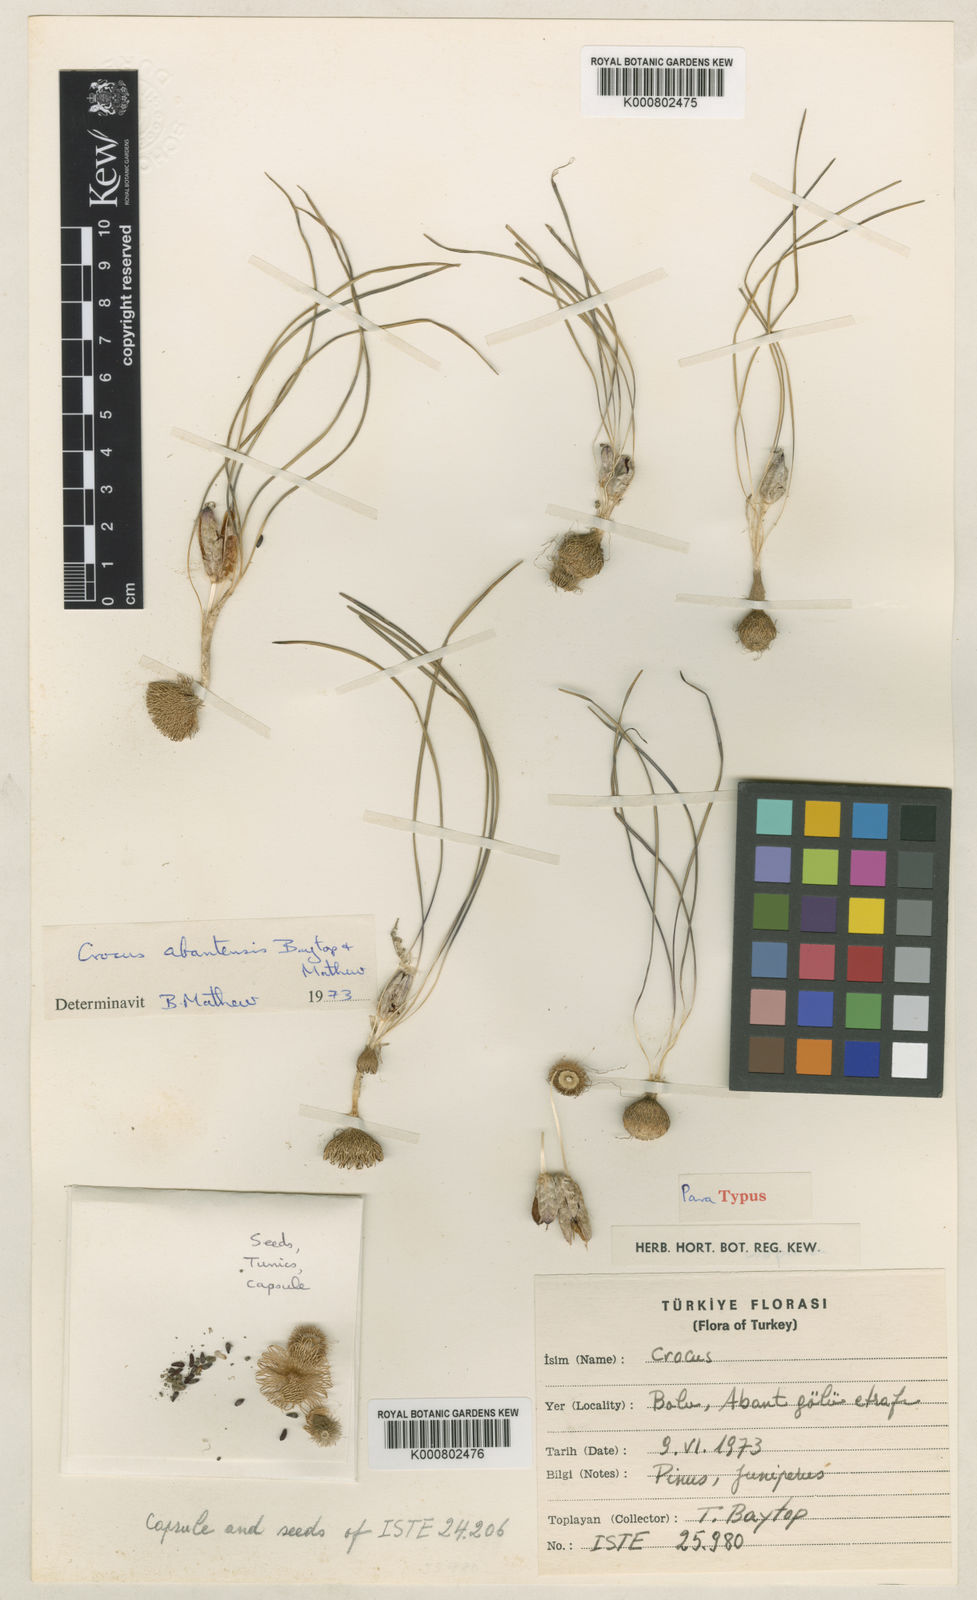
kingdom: Plantae
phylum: Tracheophyta
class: Liliopsida
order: Asparagales
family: Iridaceae
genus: Crocus
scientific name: Crocus abantensis
